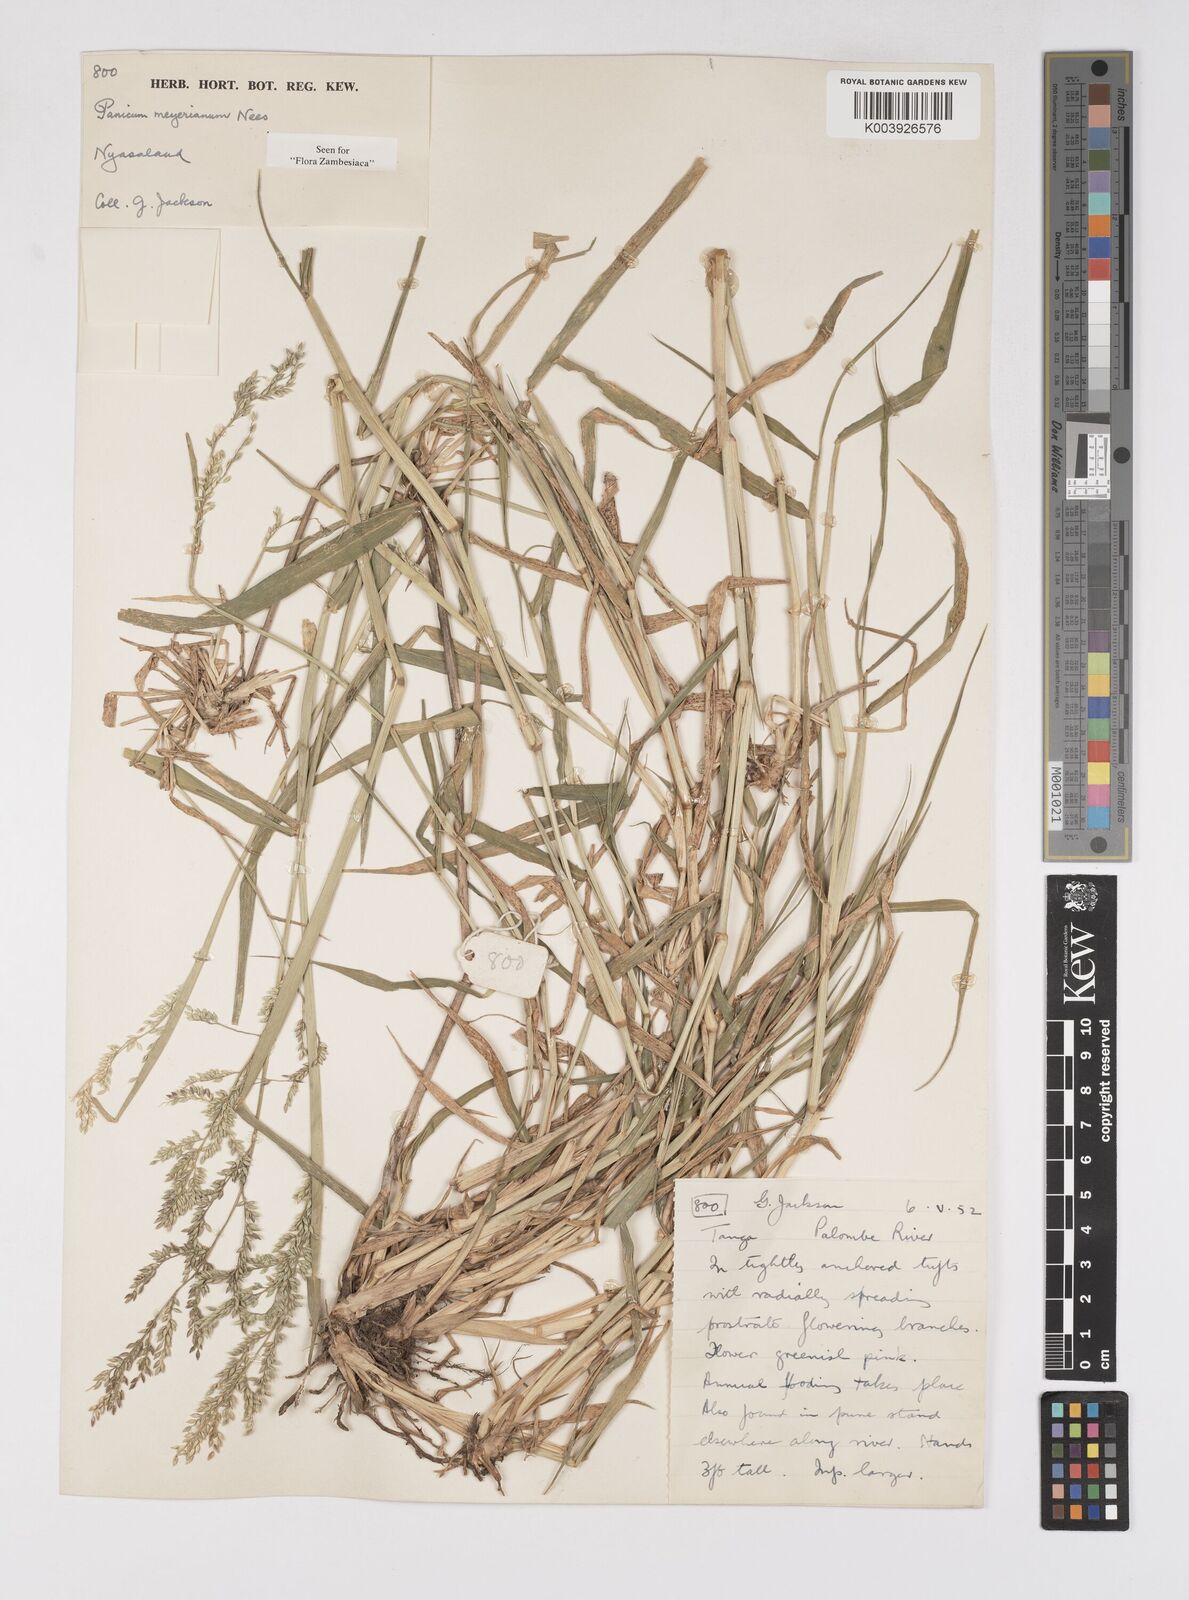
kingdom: Plantae
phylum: Tracheophyta
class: Liliopsida
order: Poales
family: Poaceae
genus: Eriochloa
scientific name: Eriochloa meyeriana
